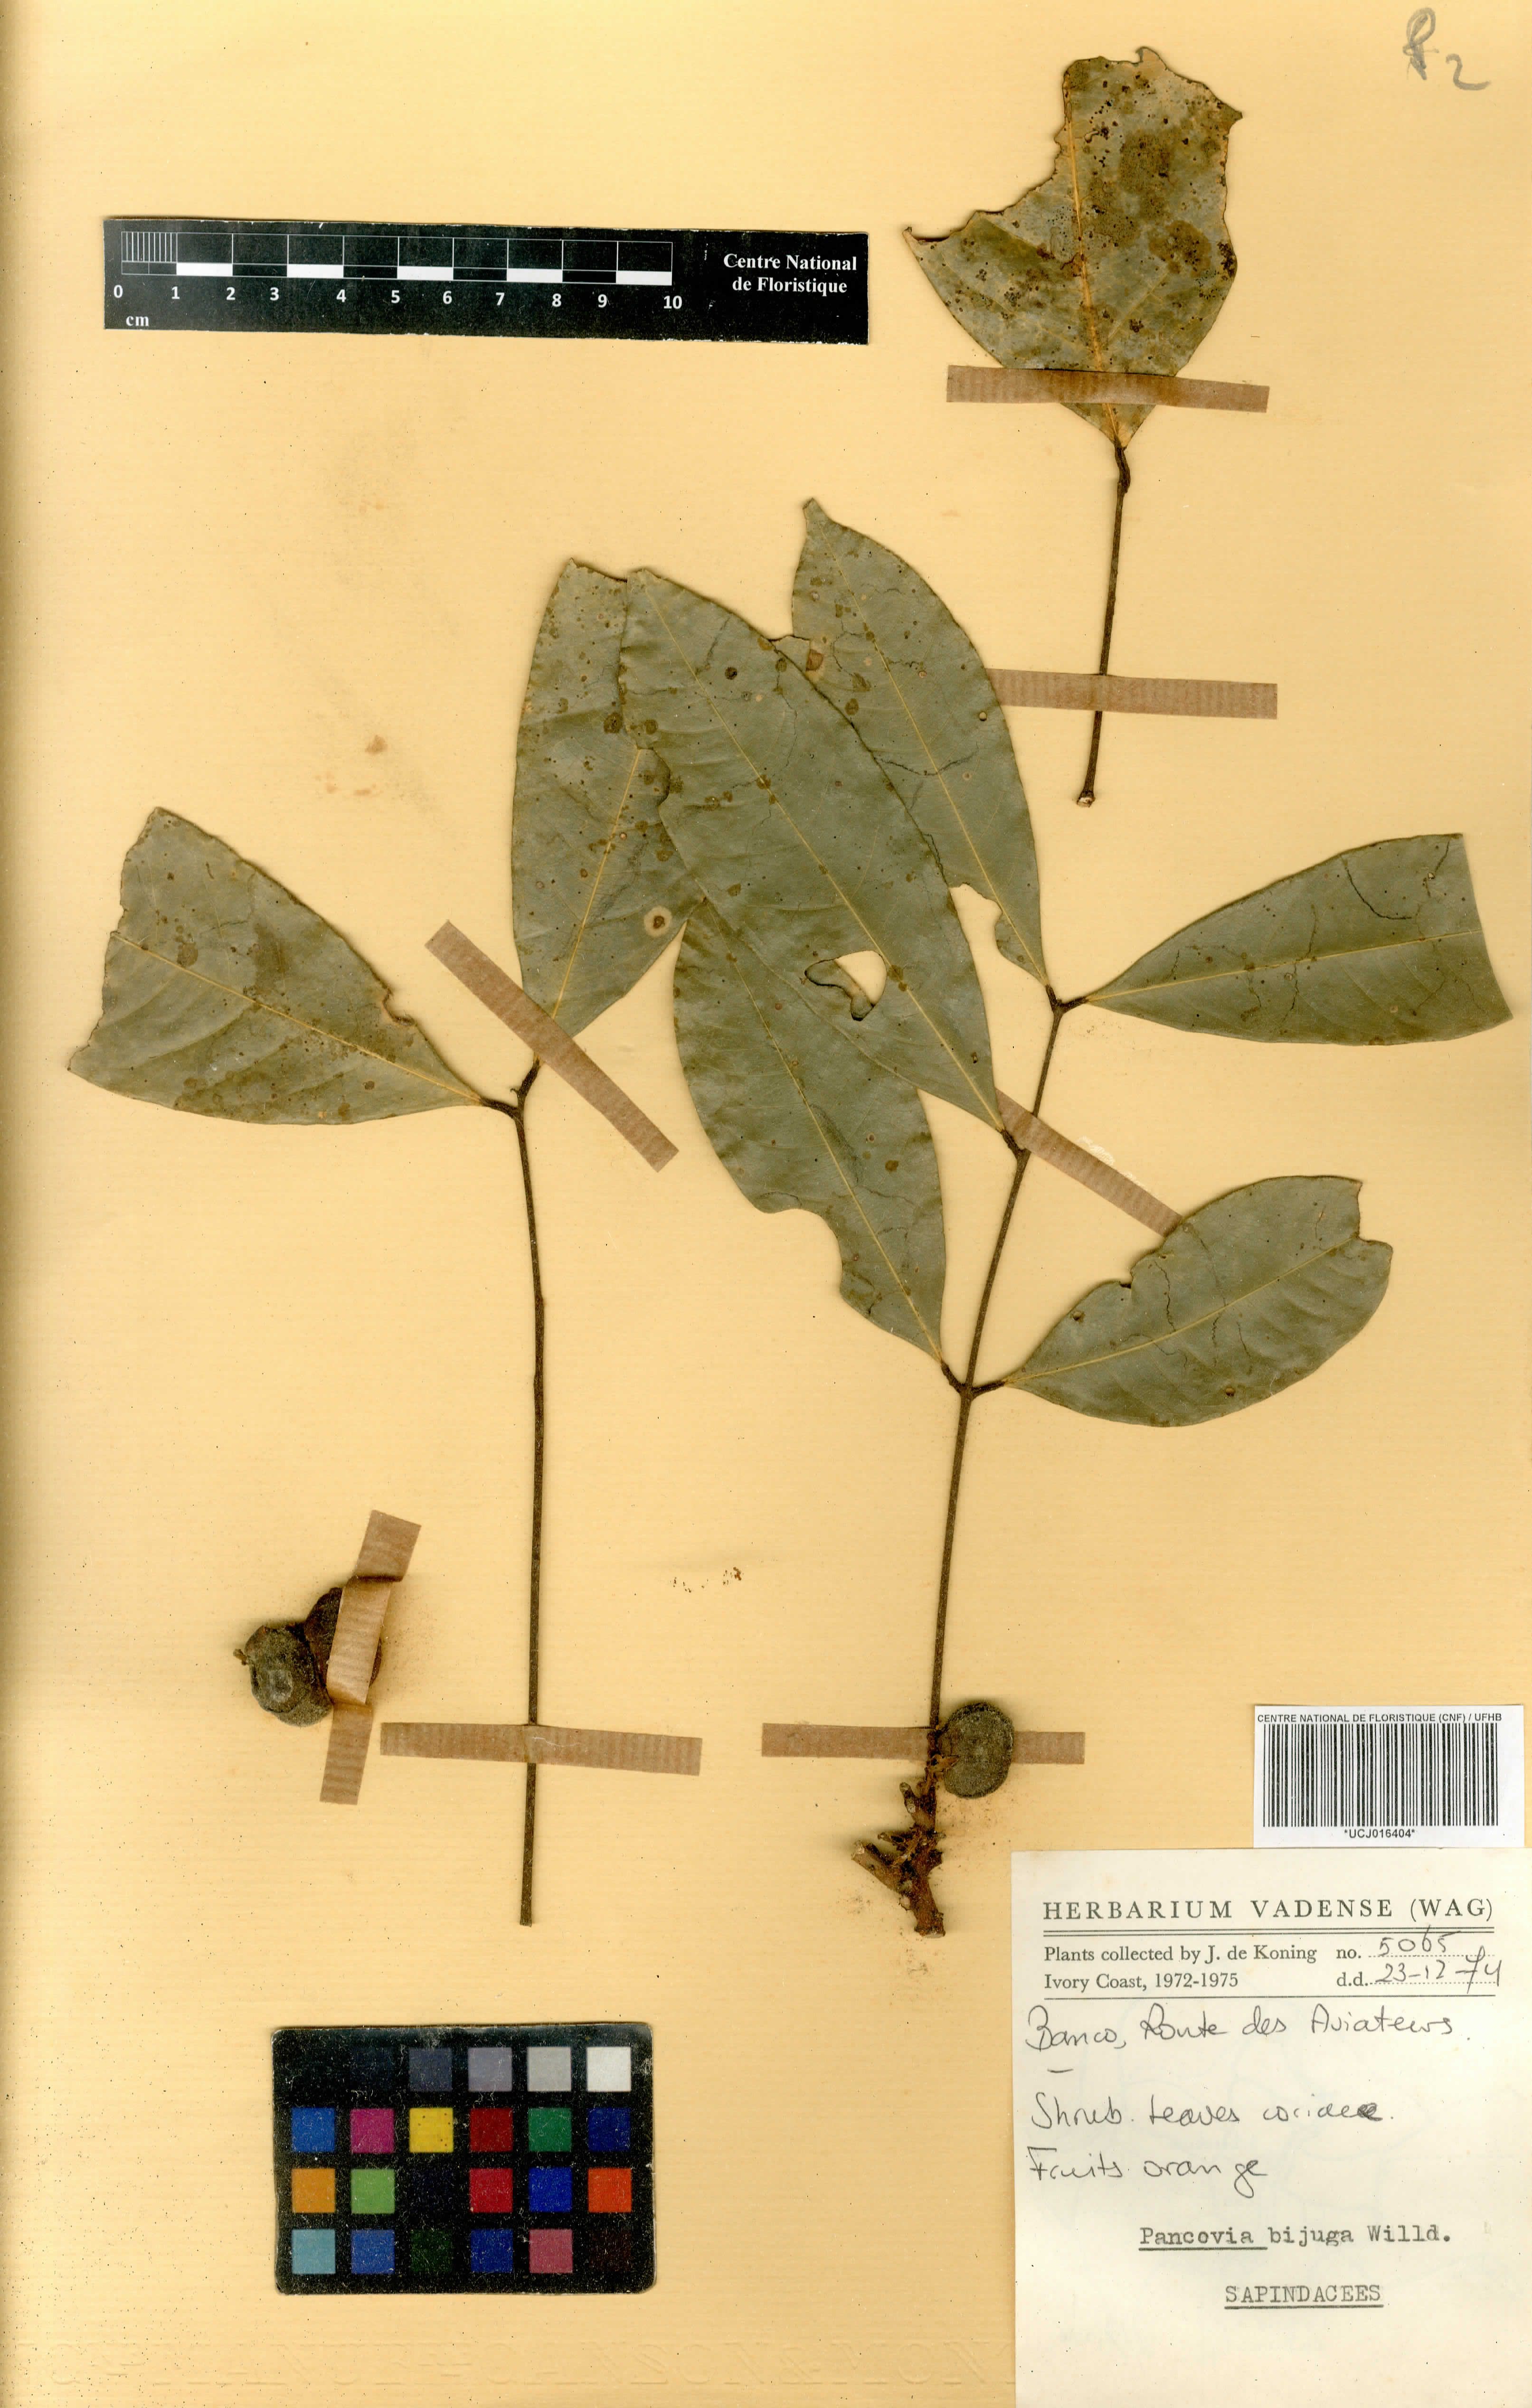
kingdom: Plantae
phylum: Tracheophyta
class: Magnoliopsida
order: Sapindales
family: Sapindaceae
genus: Pancovia
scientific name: Pancovia bijuga
